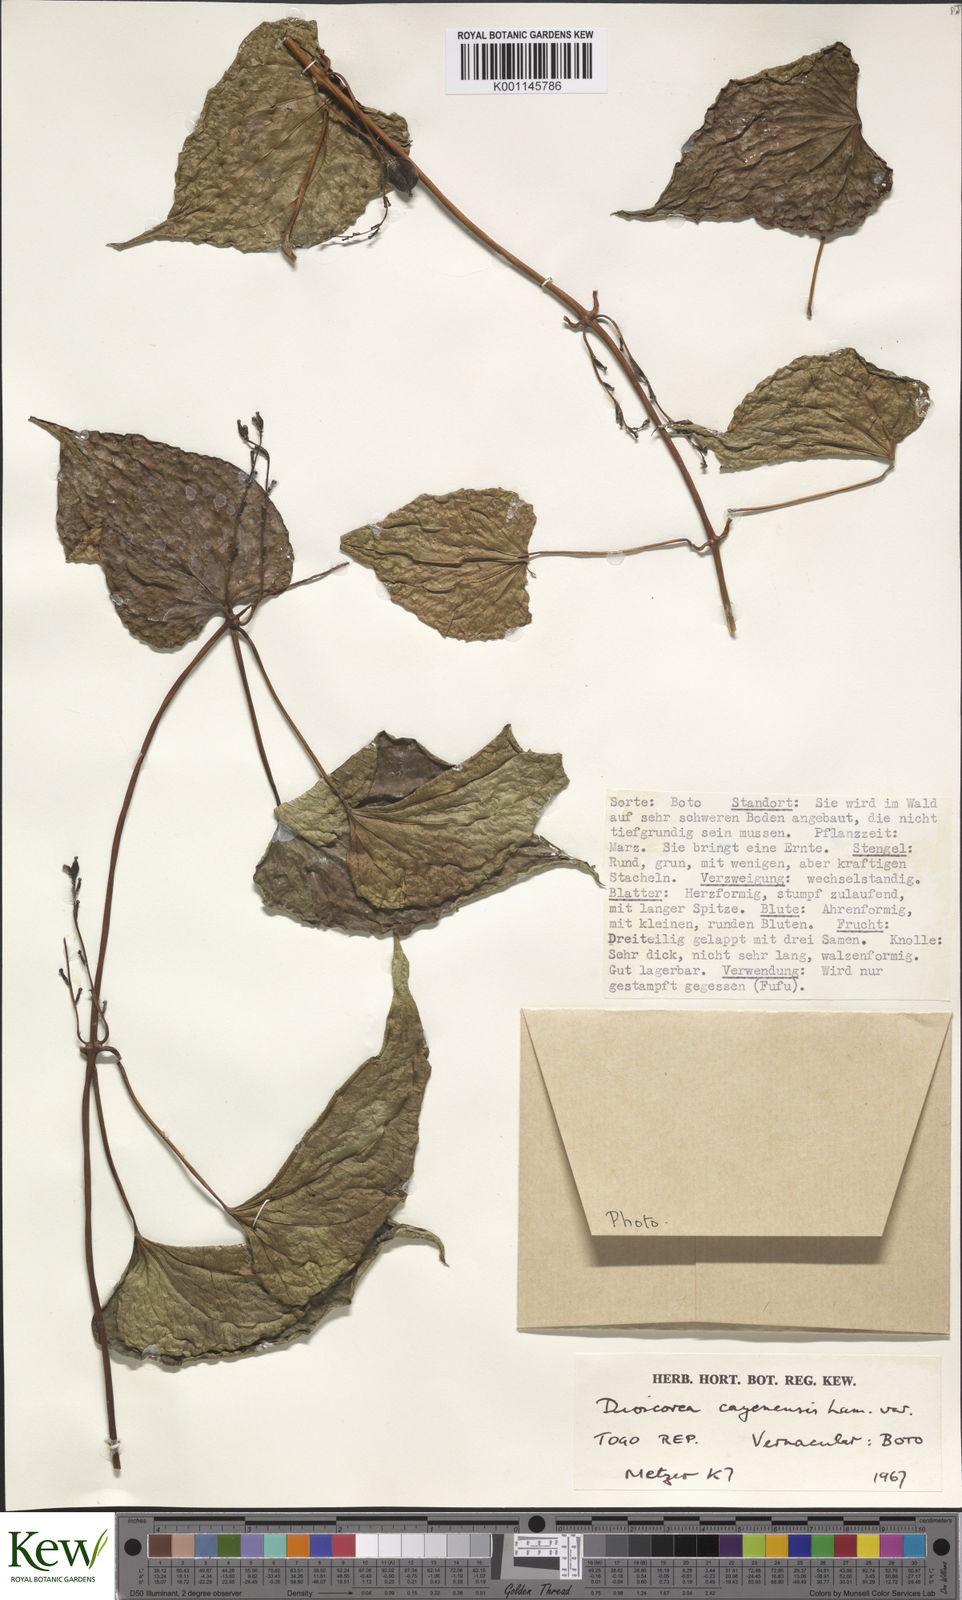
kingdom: Plantae
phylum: Tracheophyta
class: Liliopsida
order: Dioscoreales
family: Dioscoreaceae
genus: Dioscorea
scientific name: Dioscorea cayenensis
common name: Attoto yam
